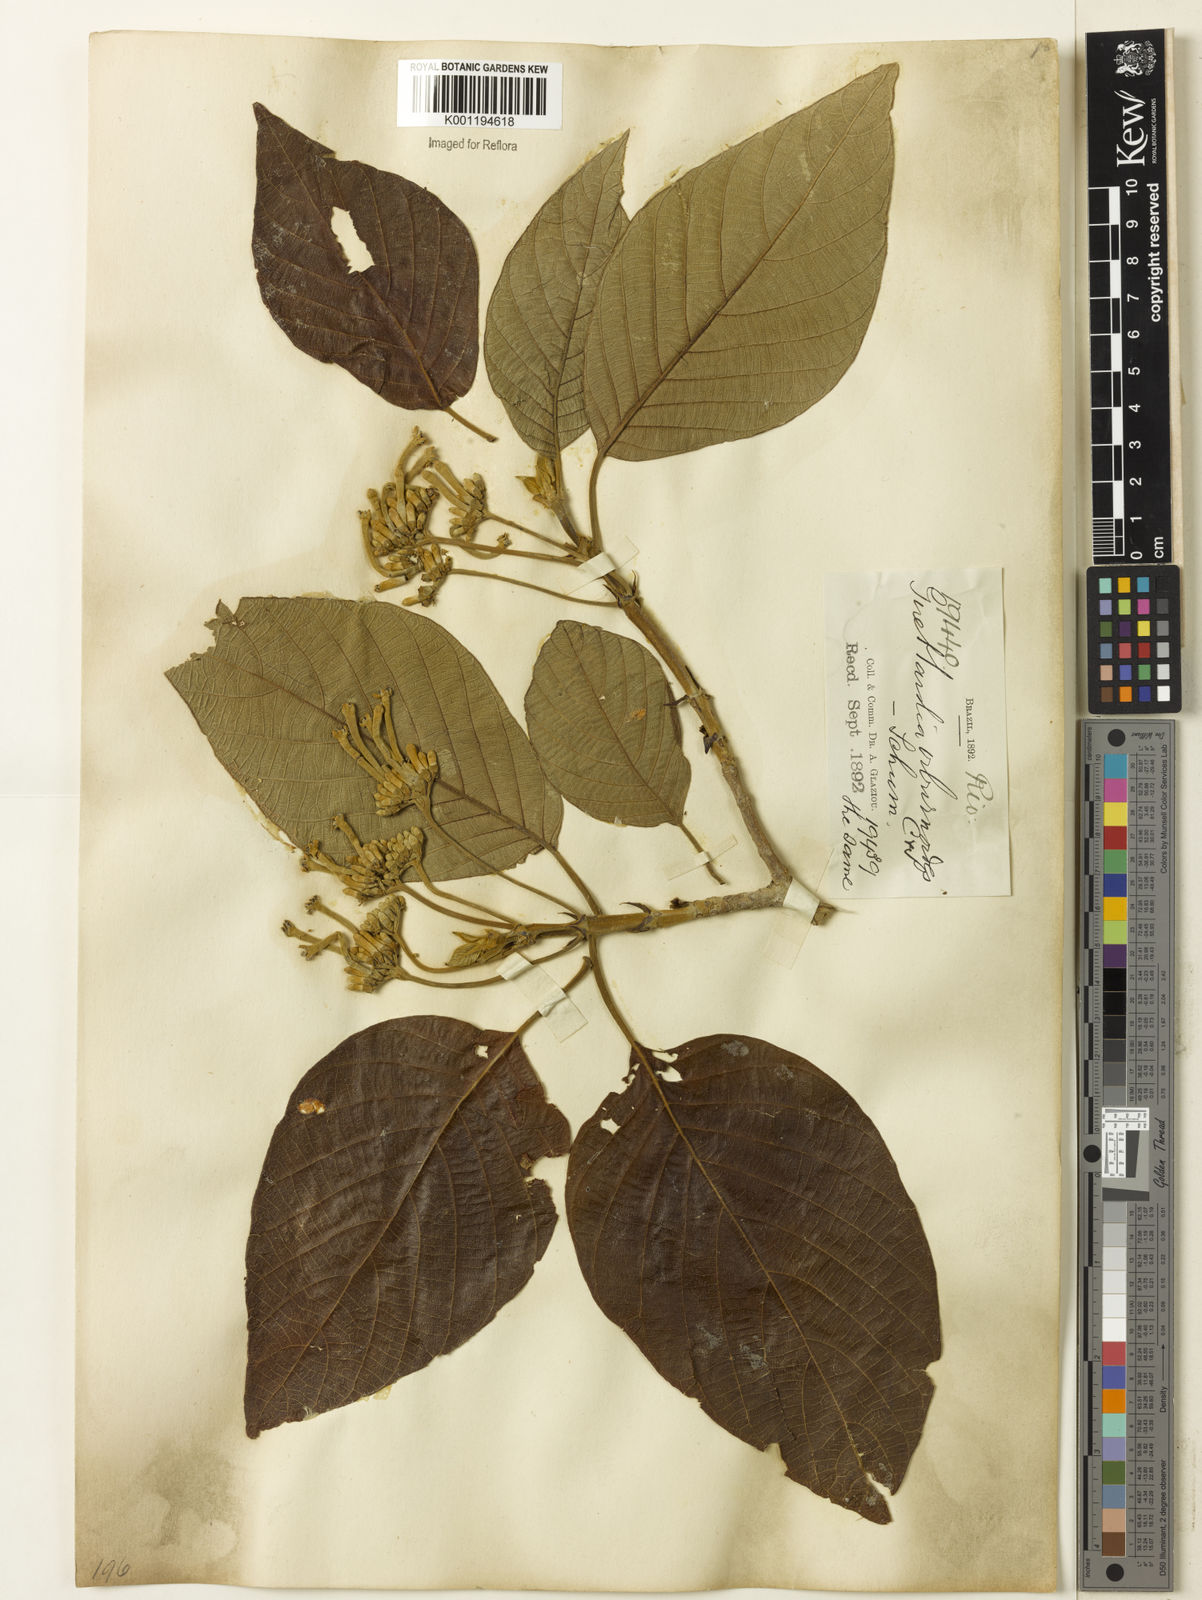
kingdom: Plantae
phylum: Tracheophyta
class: Magnoliopsida
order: Gentianales
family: Rubiaceae
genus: Guettarda
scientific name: Guettarda viburnoides
